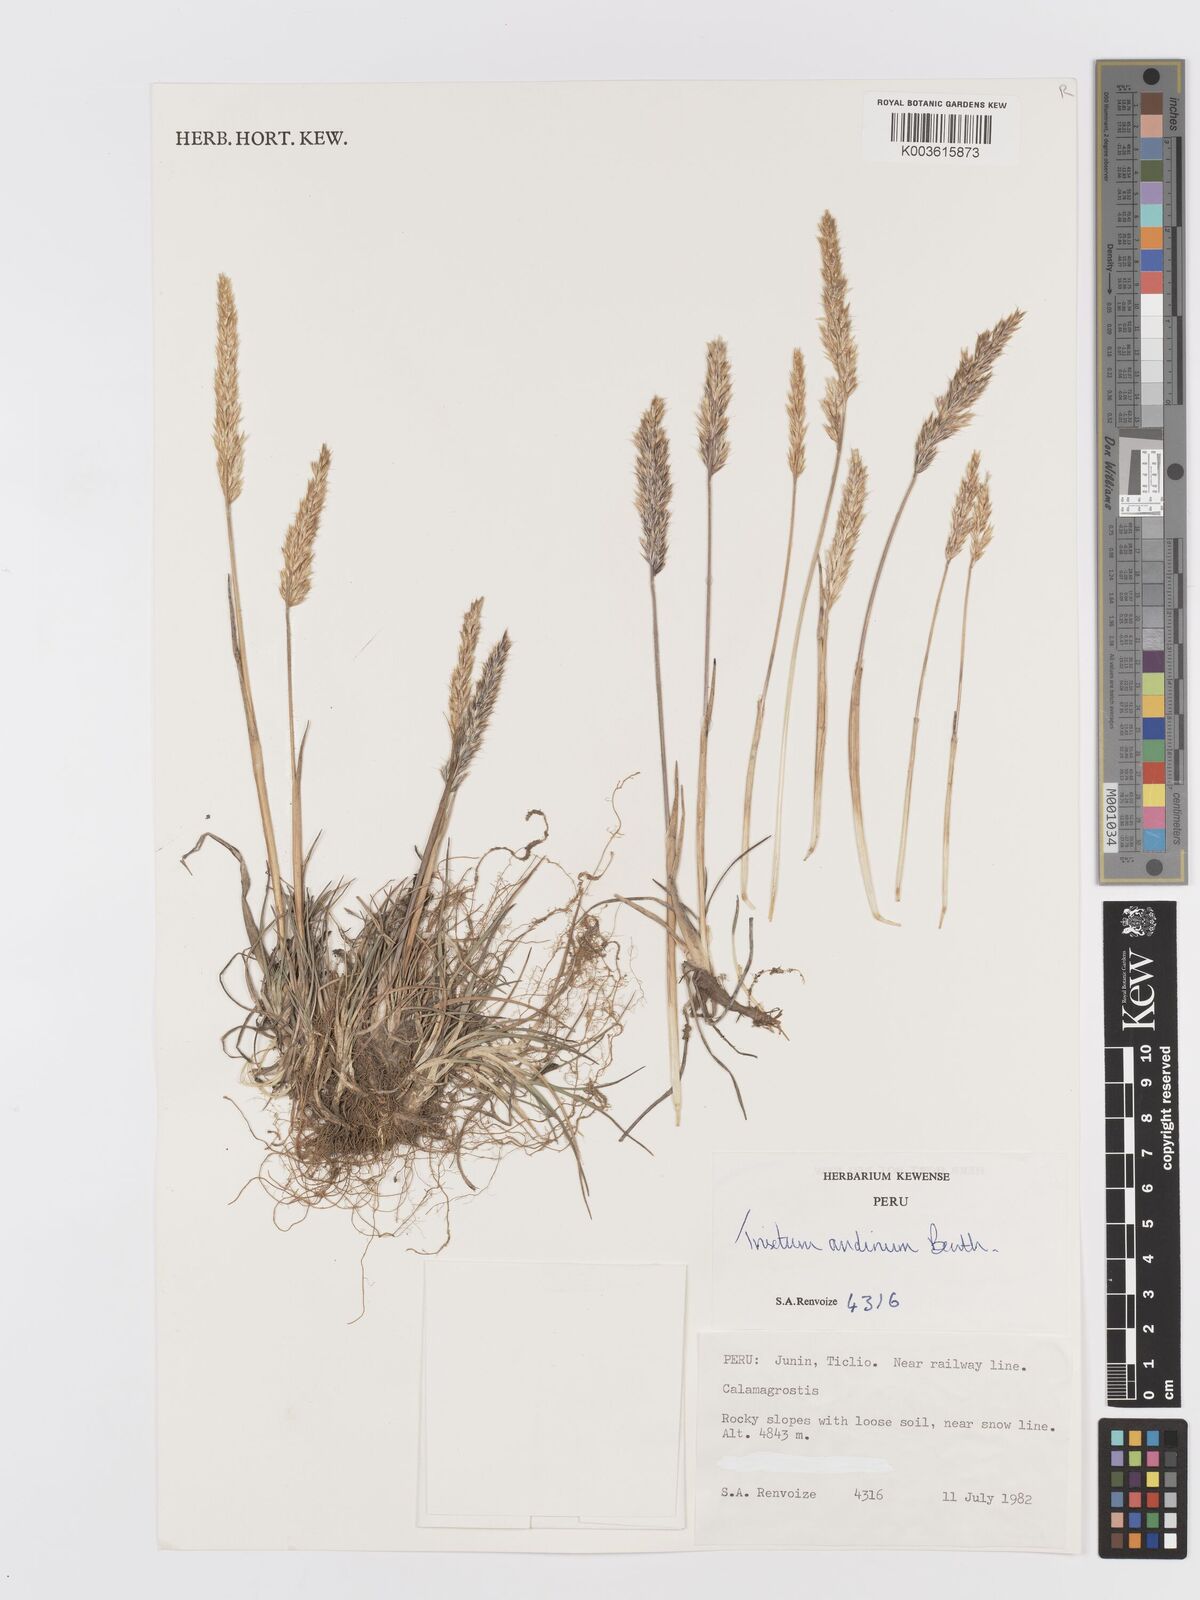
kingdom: Plantae
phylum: Tracheophyta
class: Liliopsida
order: Poales
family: Poaceae
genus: Koeleria
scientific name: Koeleria spicata
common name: Mountain trisetum
